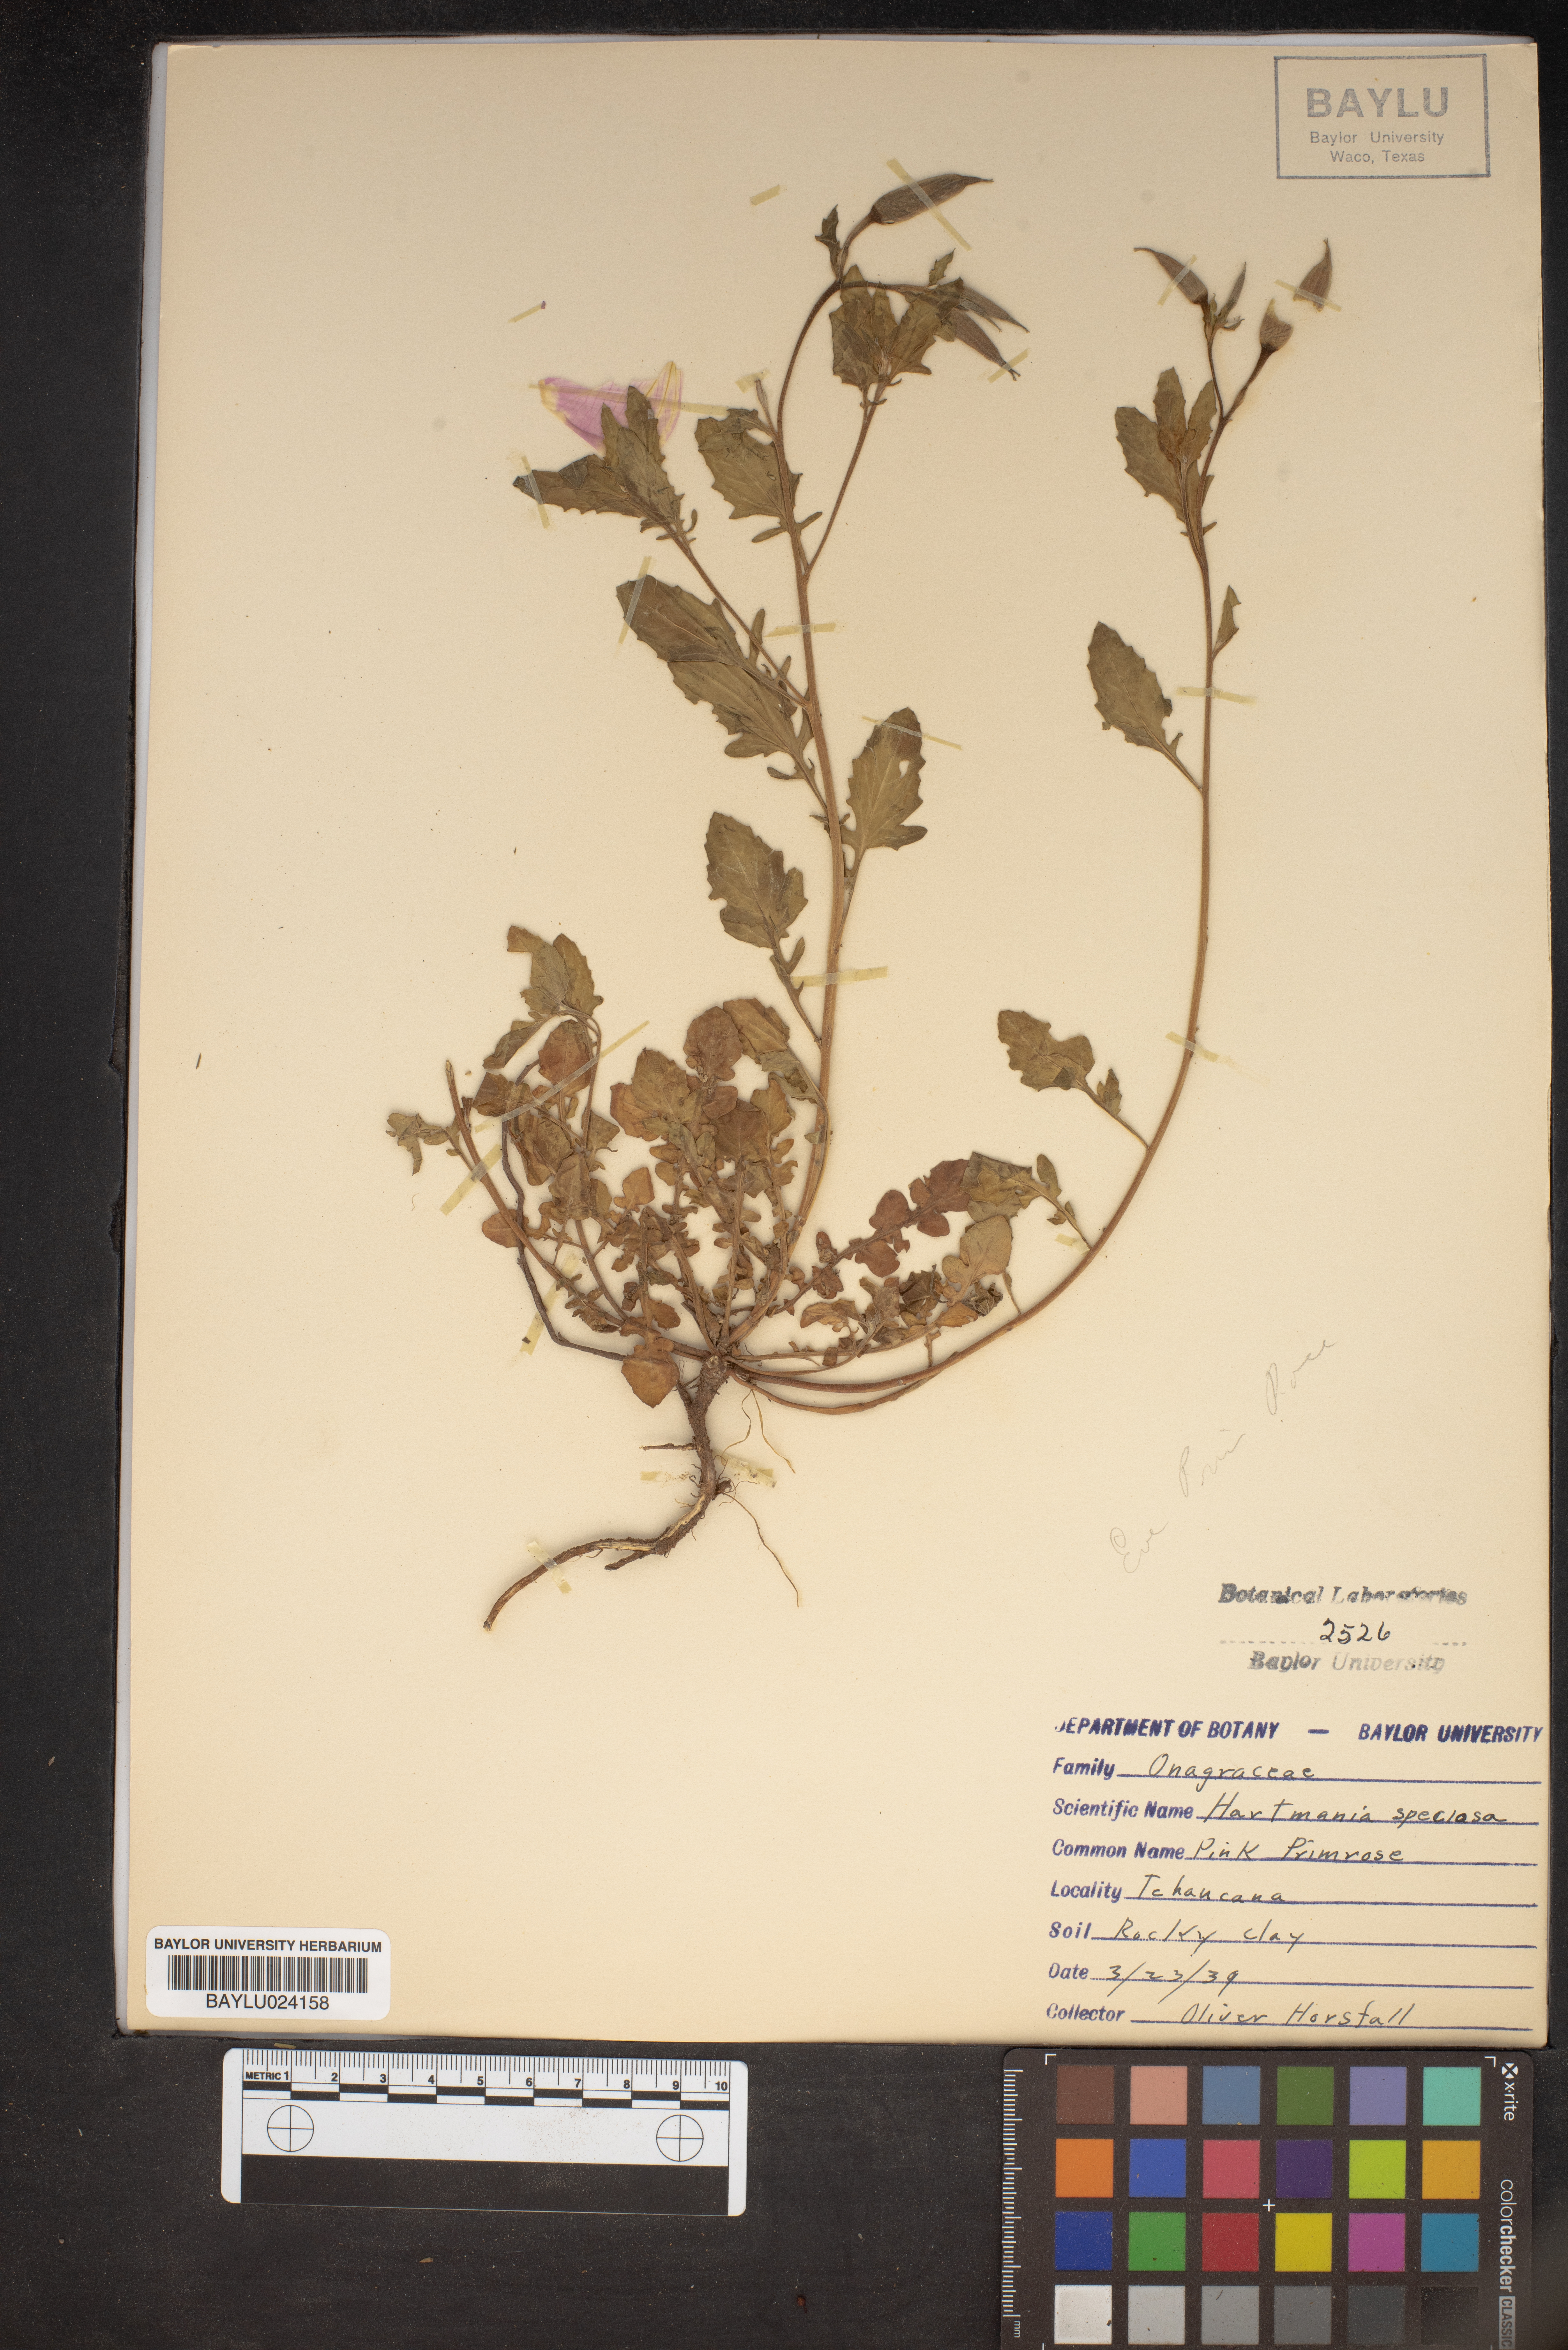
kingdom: Plantae
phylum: Tracheophyta
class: Magnoliopsida
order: Myrtales
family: Onagraceae
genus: Oenothera
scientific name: Oenothera speciosa
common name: White evening-primrose
